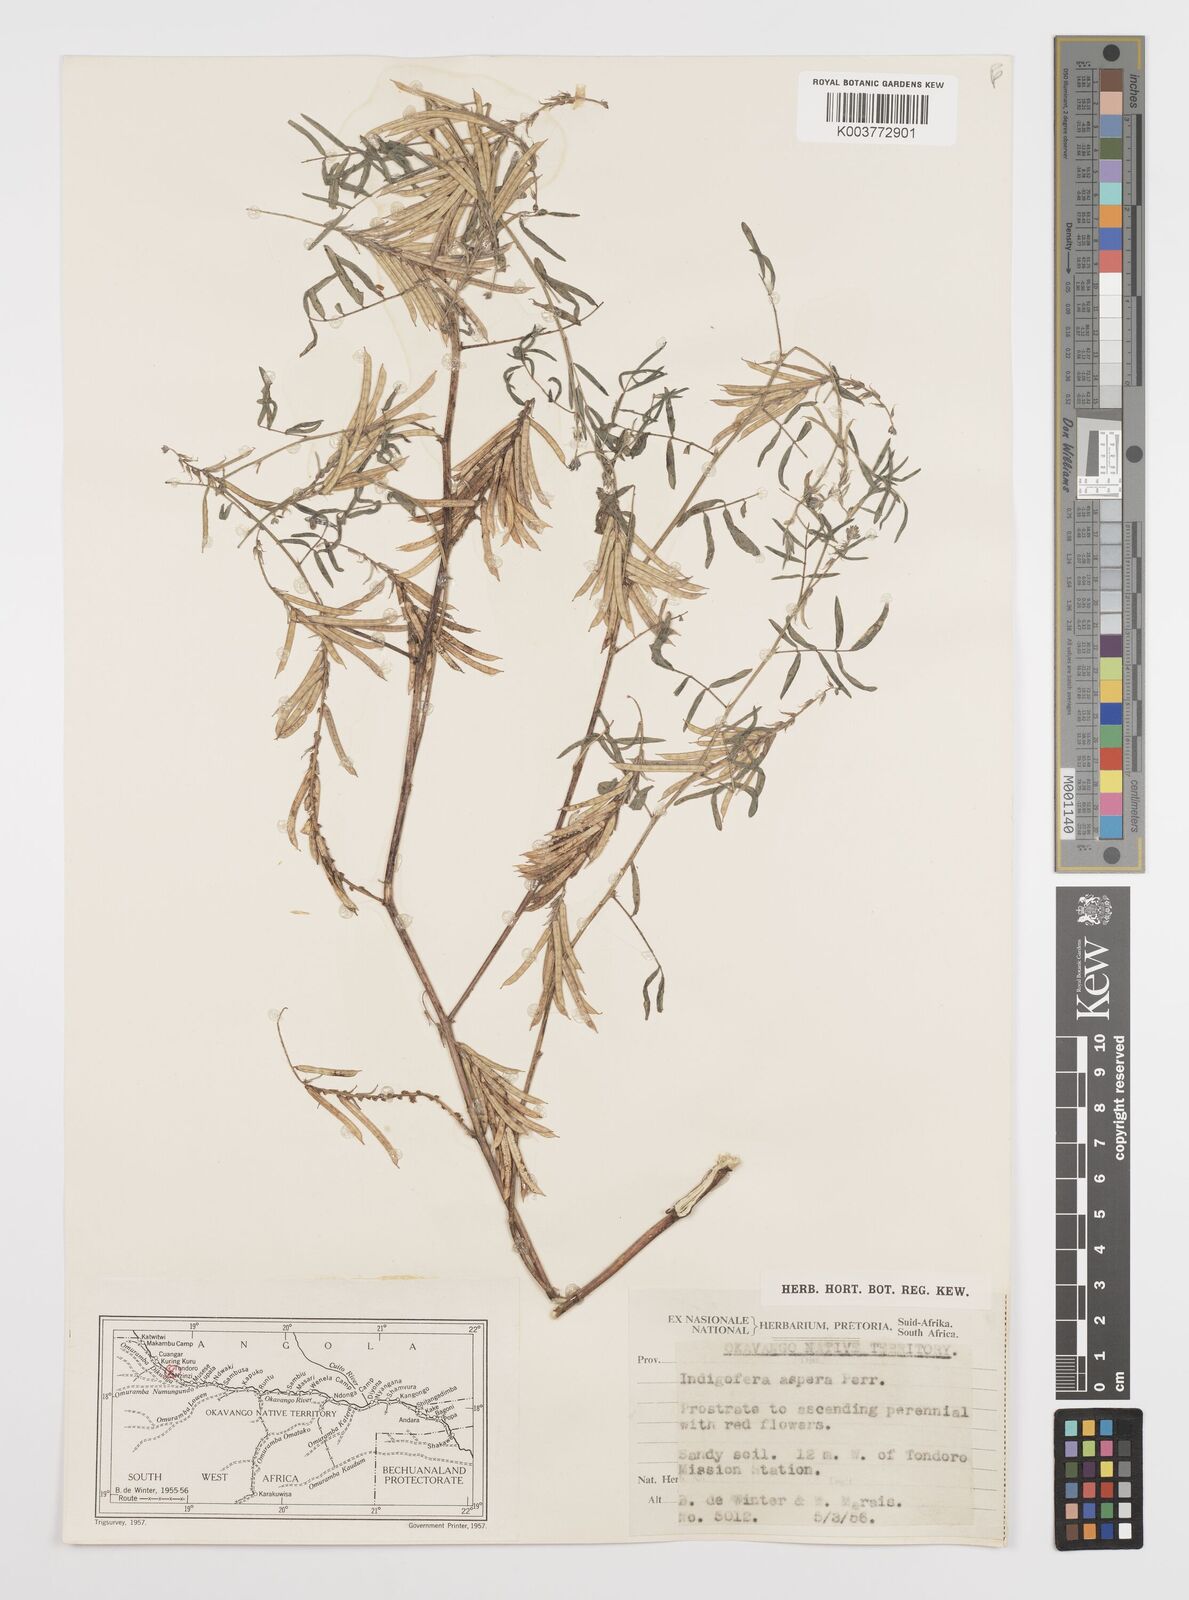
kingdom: Plantae
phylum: Tracheophyta
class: Magnoliopsida
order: Fabales
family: Fabaceae
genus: Indigofera
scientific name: Indigofera charlieriana
